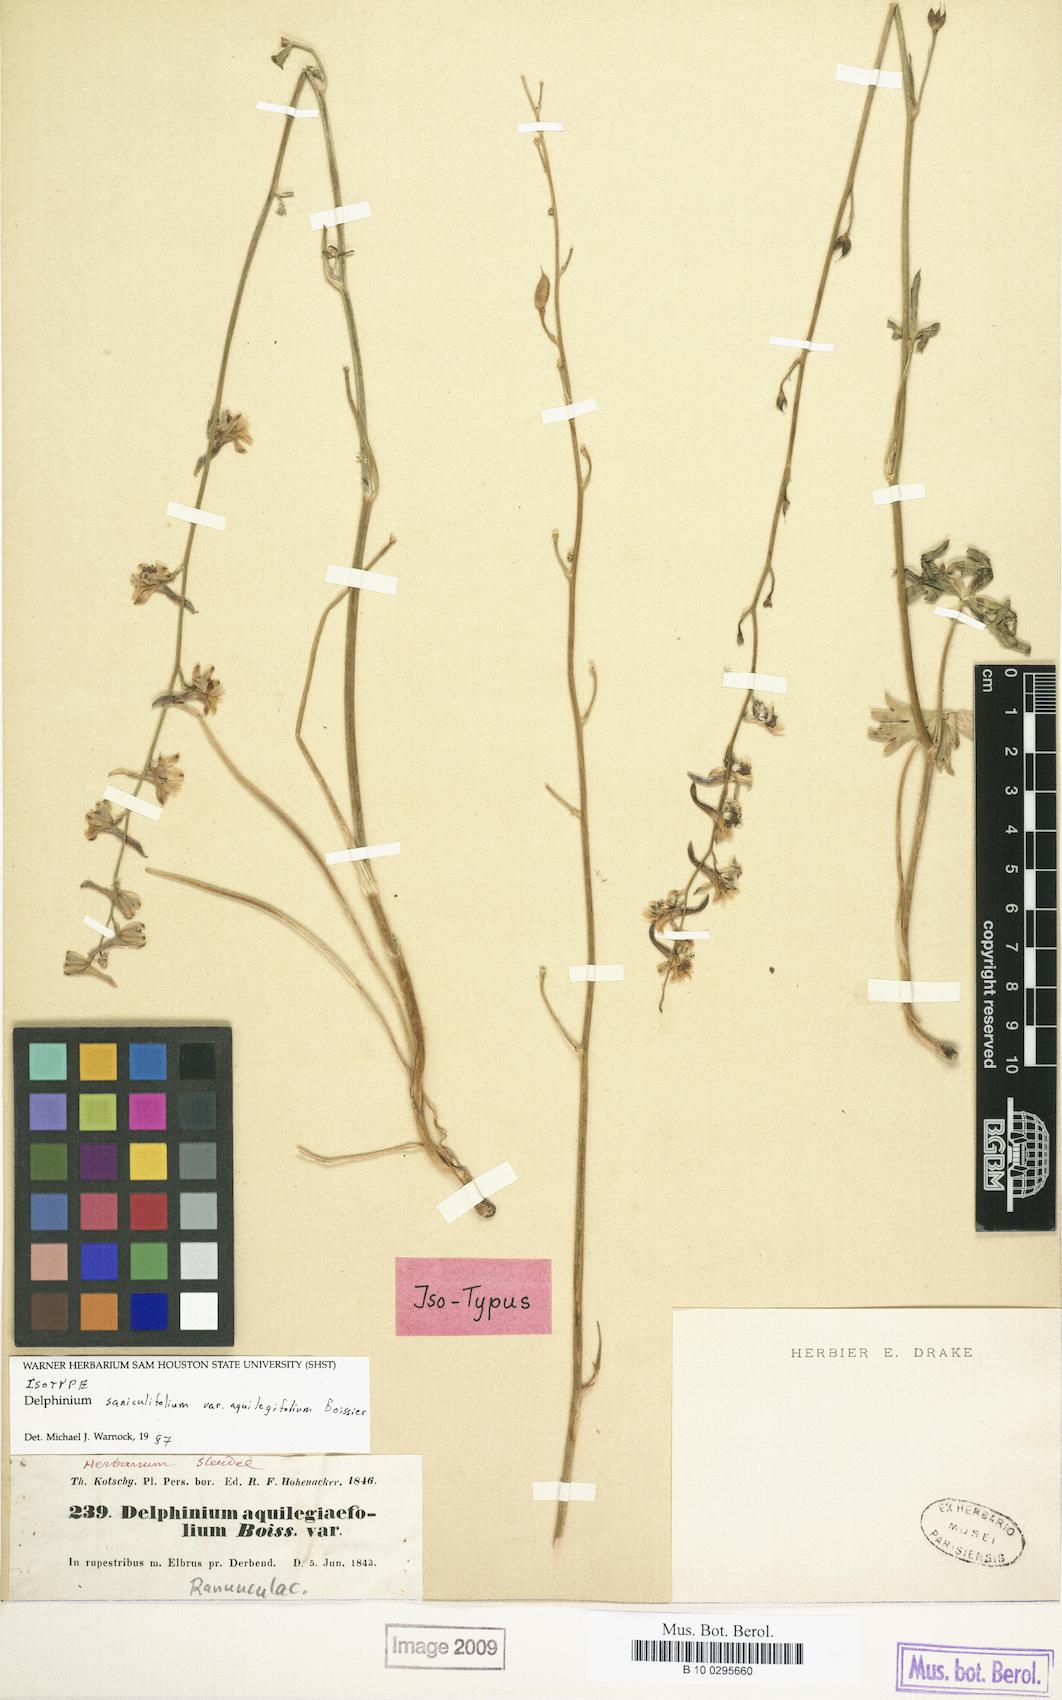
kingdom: Plantae
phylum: Tracheophyta
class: Magnoliopsida
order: Ranunculales
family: Ranunculaceae
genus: Delphinium
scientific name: Delphinium aquilegifolium
